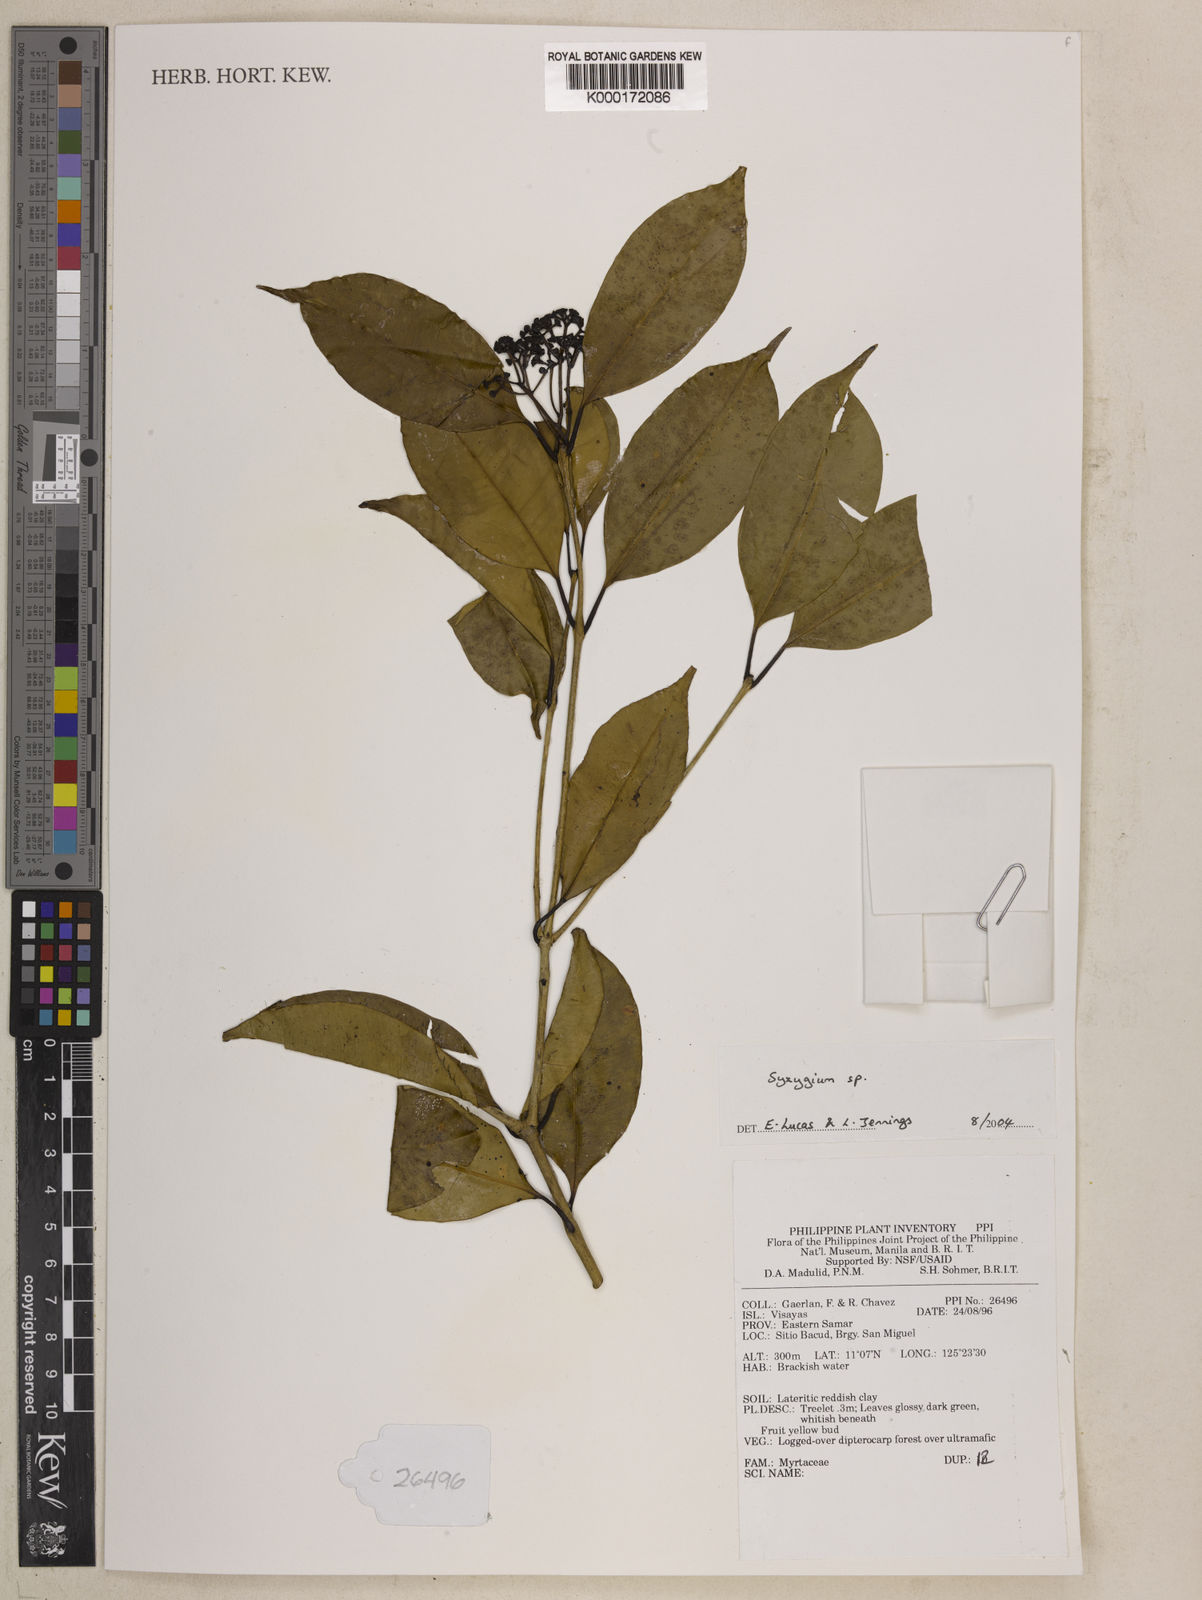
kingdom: Plantae
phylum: Tracheophyta
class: Magnoliopsida
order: Myrtales
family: Myrtaceae
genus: Syzygium
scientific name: Syzygium
